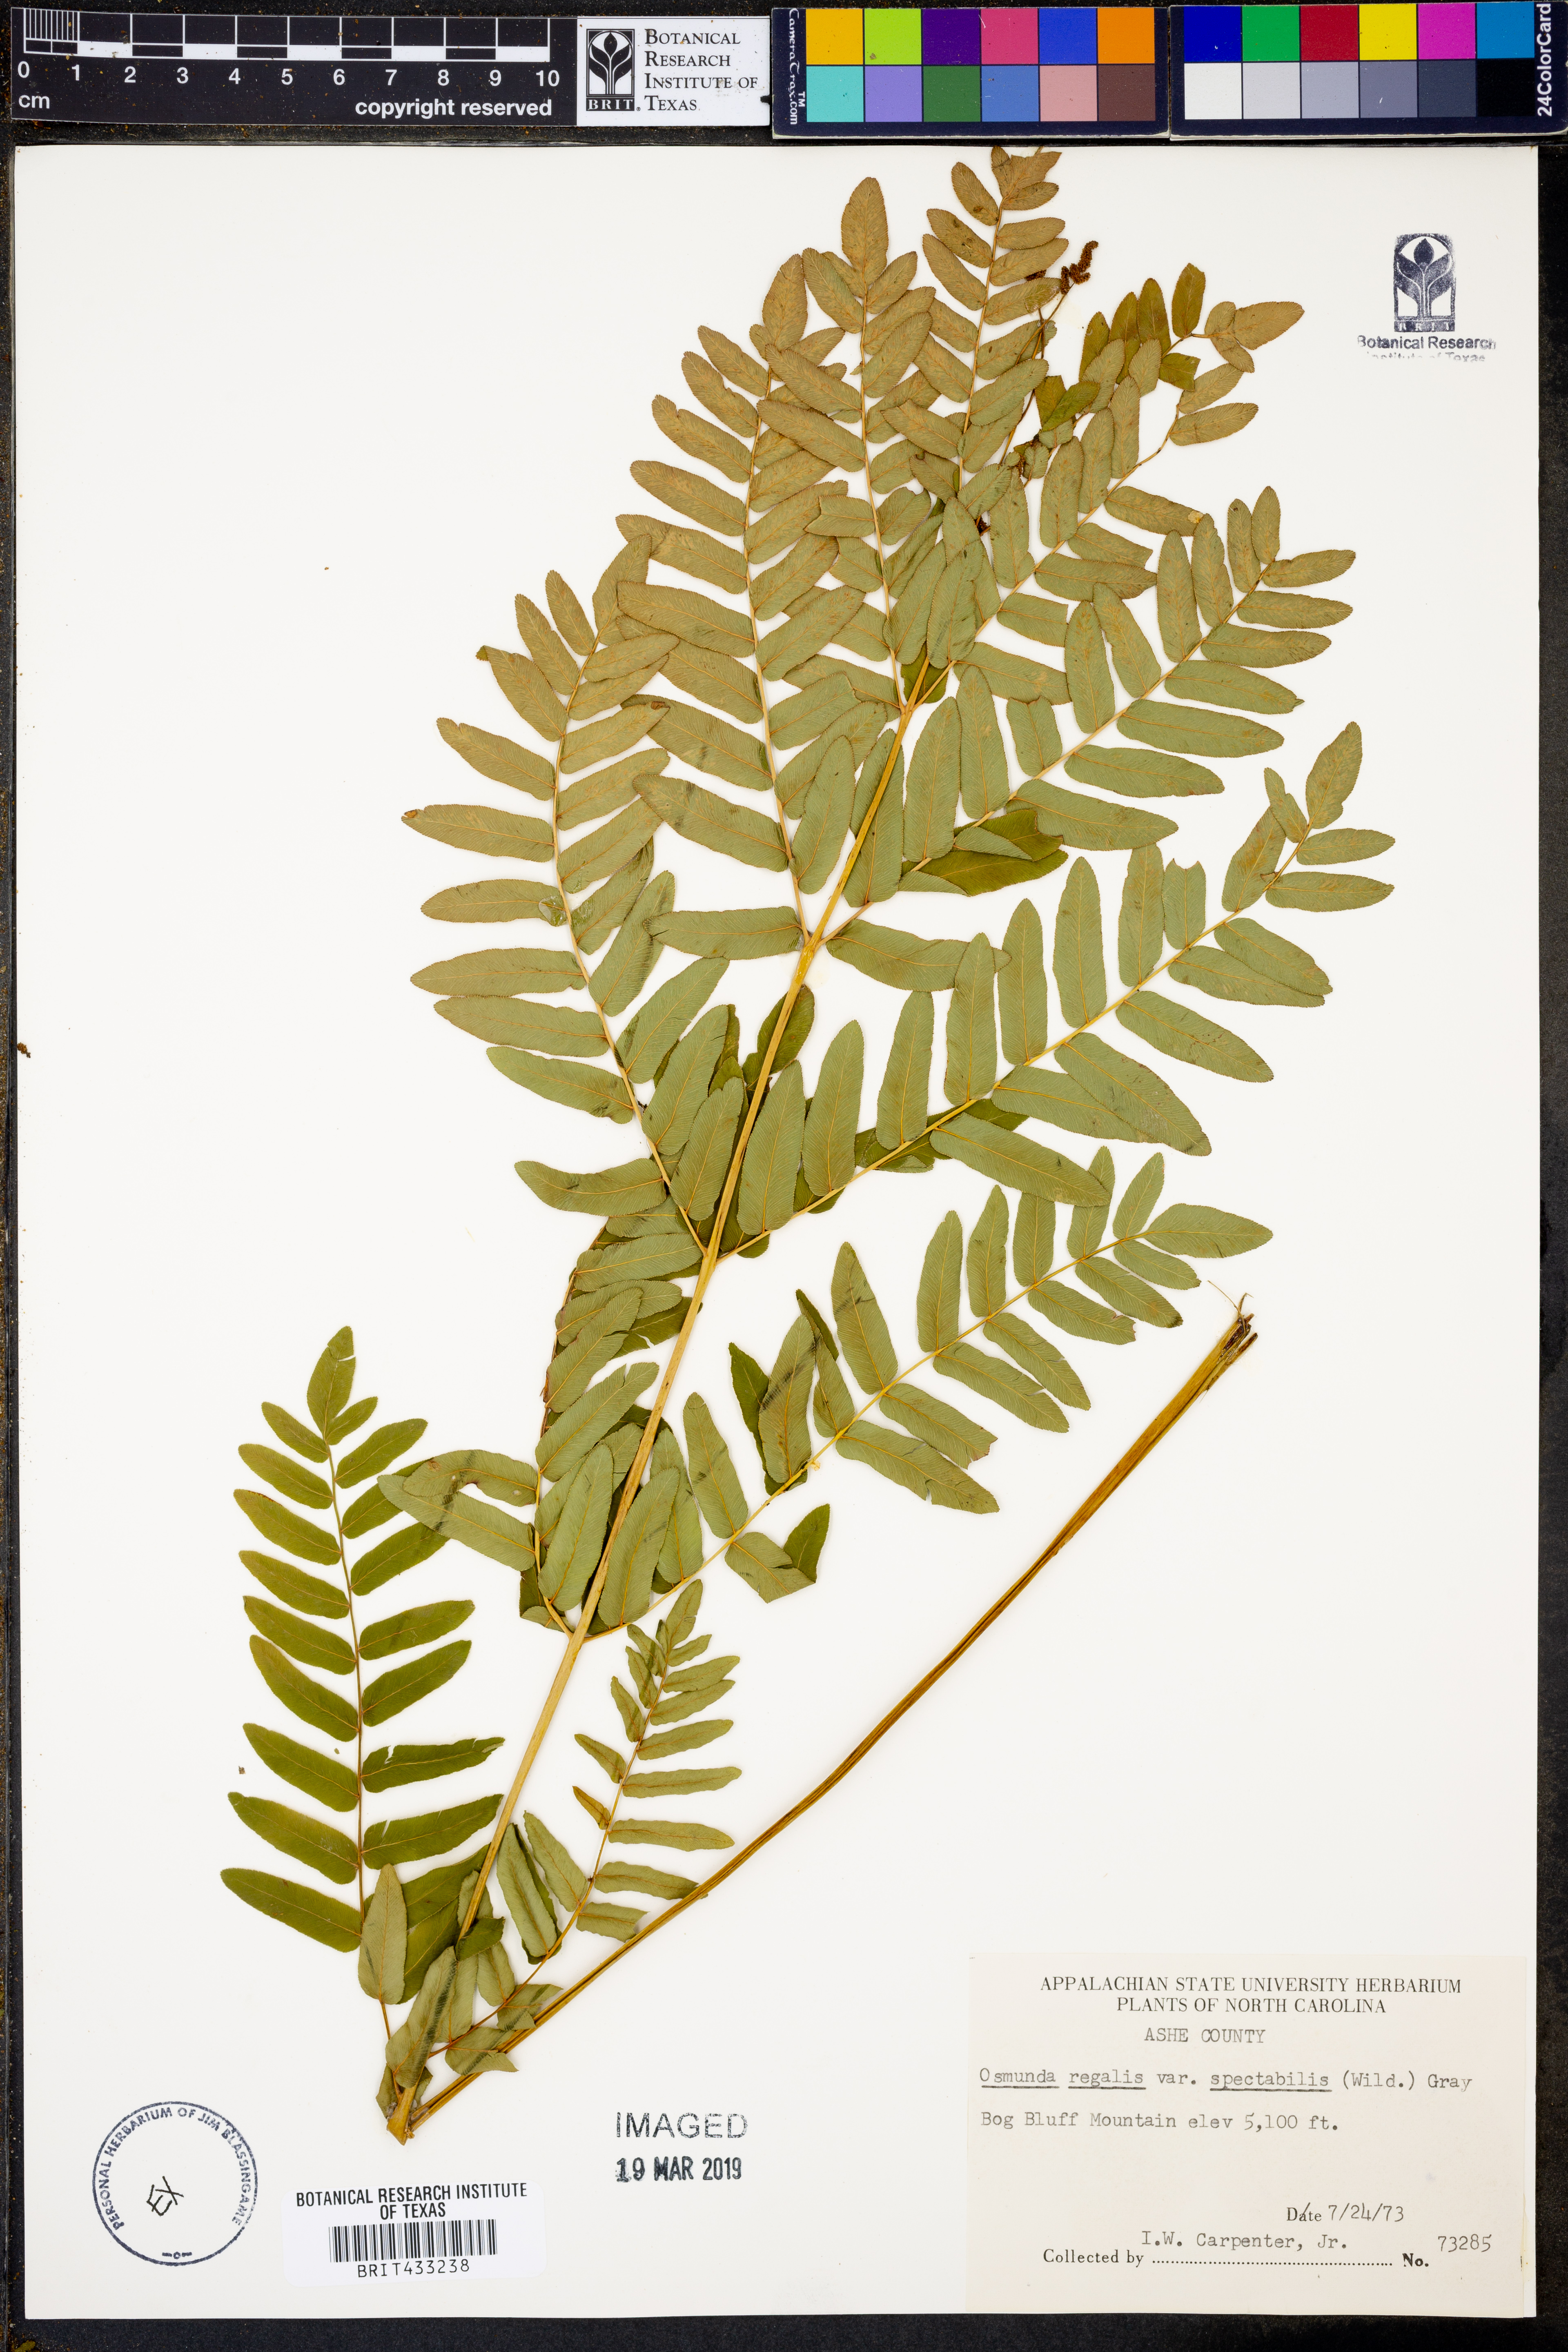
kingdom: Plantae
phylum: Tracheophyta
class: Polypodiopsida
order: Osmundales
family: Osmundaceae
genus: Osmunda
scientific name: Osmunda spectabilis
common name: American royal fern
